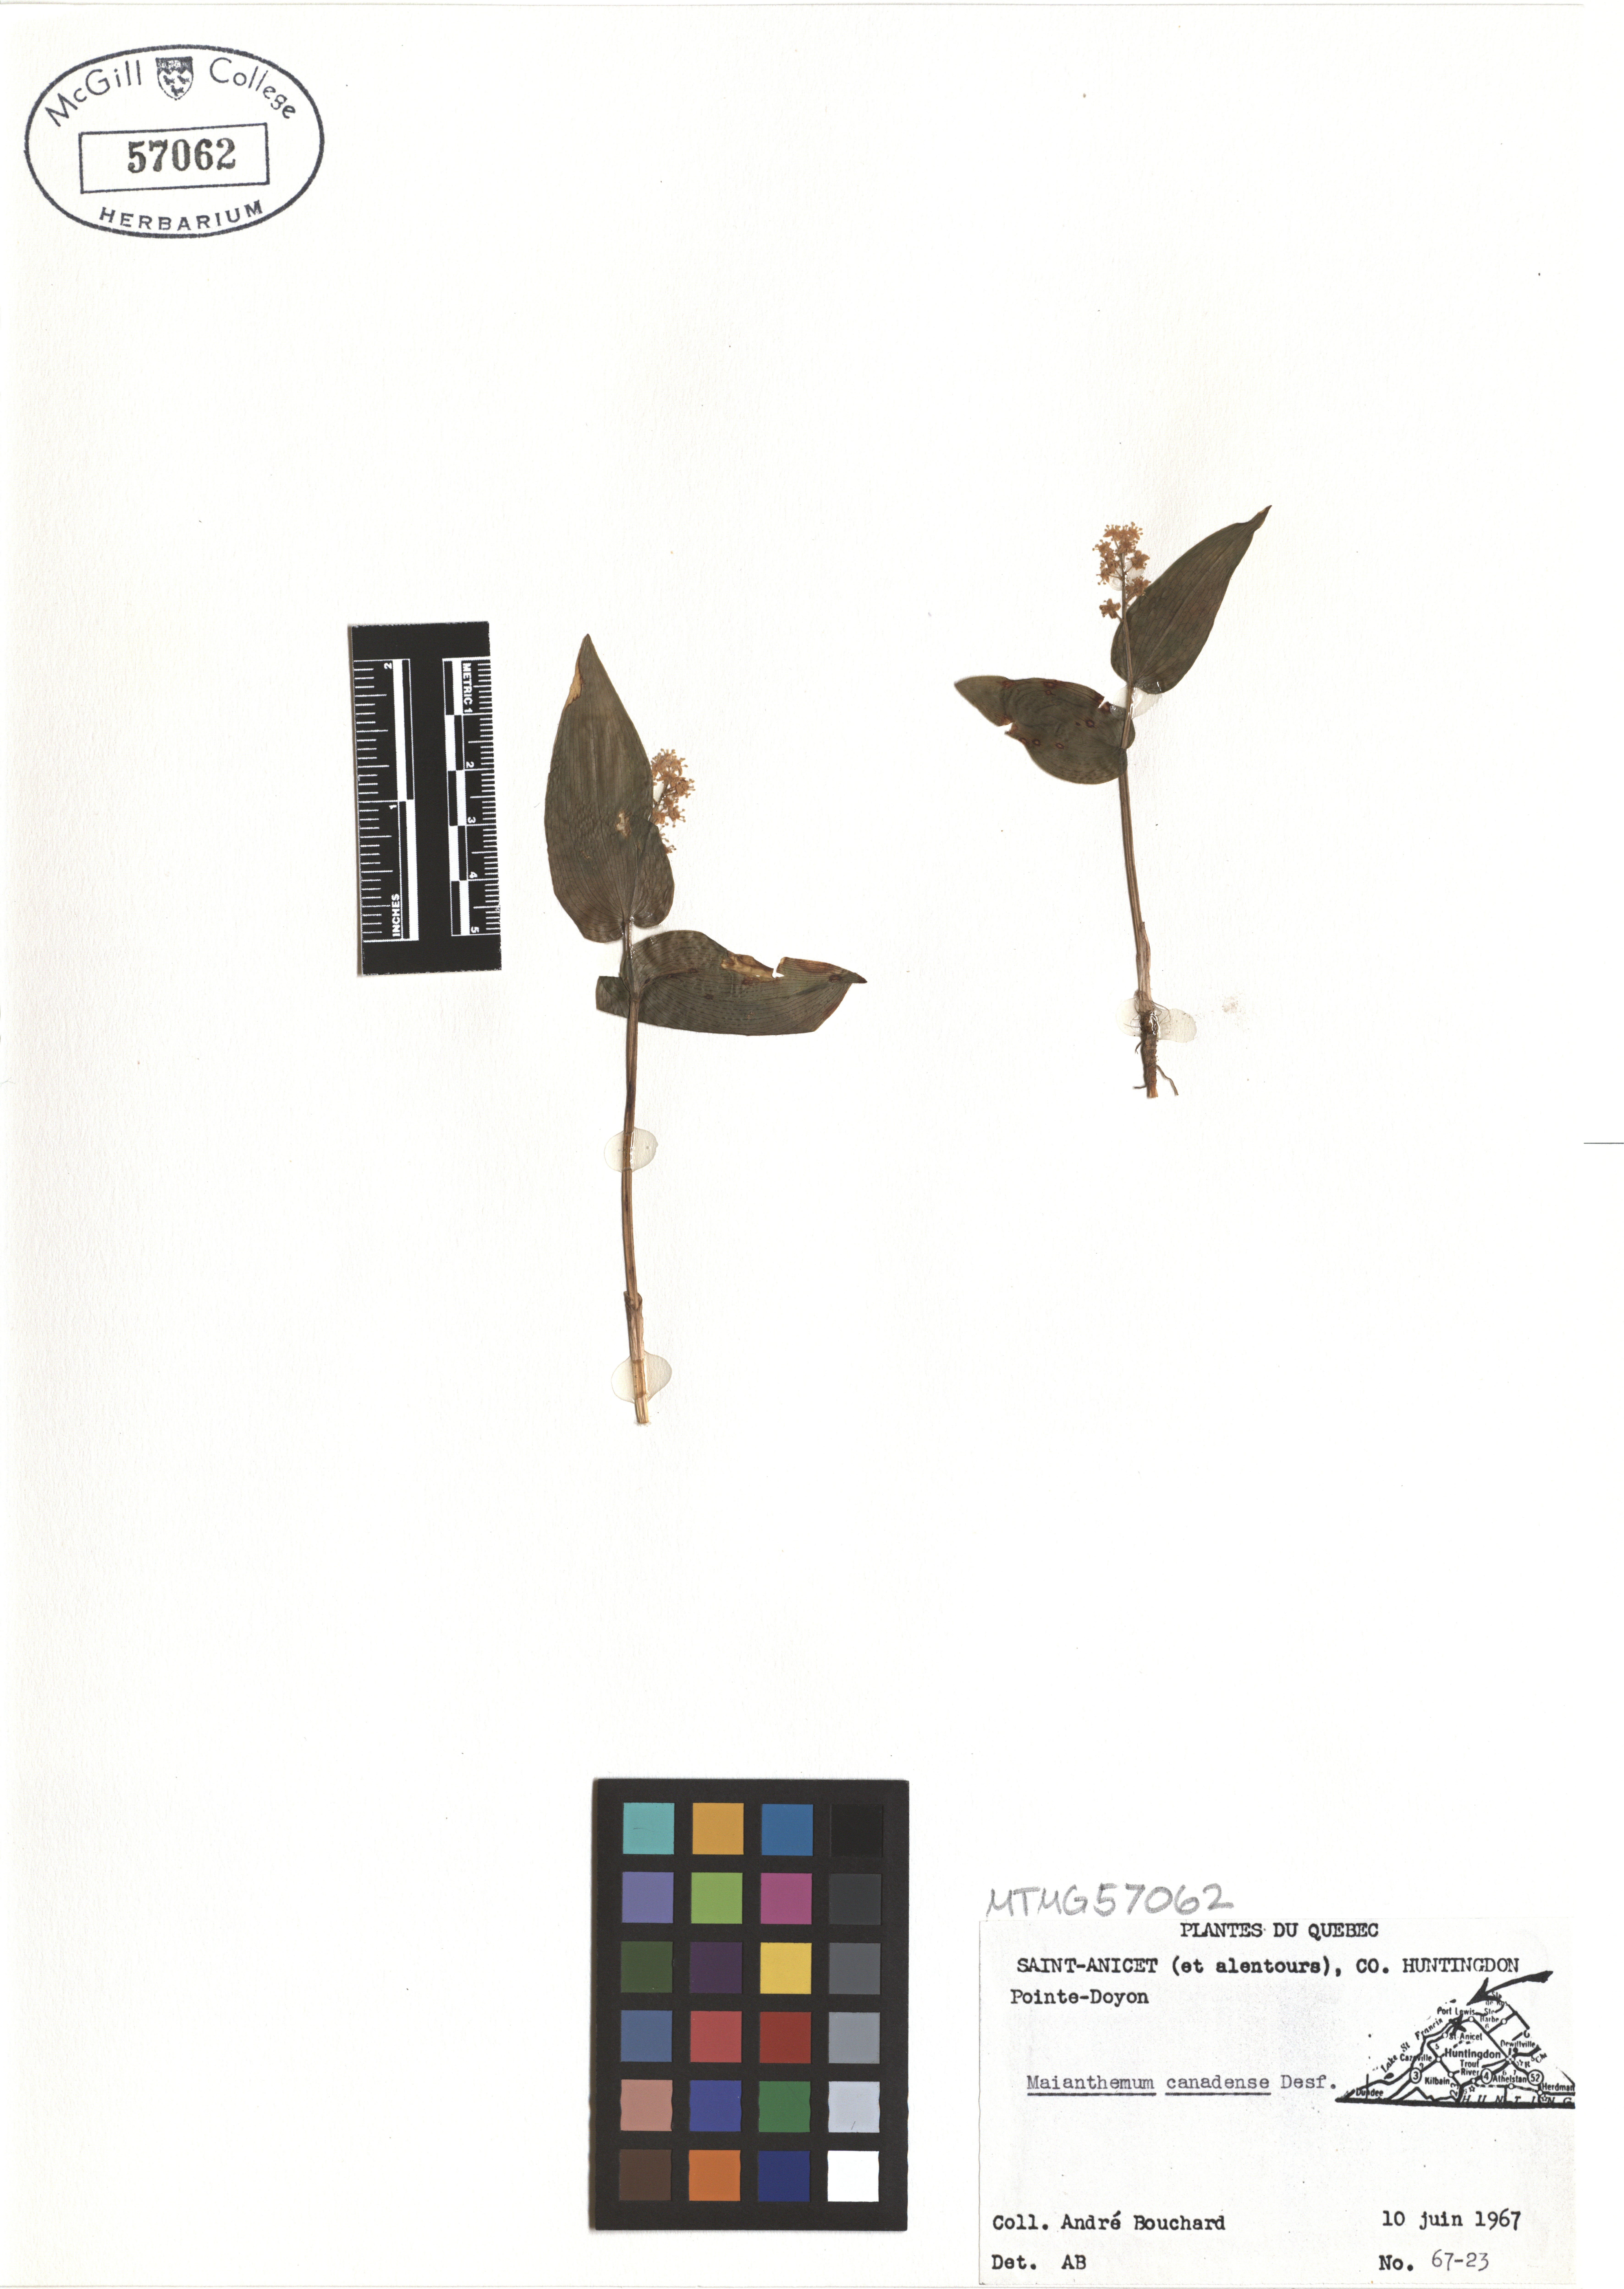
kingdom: Plantae
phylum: Tracheophyta
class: Liliopsida
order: Asparagales
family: Asparagaceae
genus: Maianthemum
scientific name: Maianthemum canadense
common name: False lily-of-the-valley
